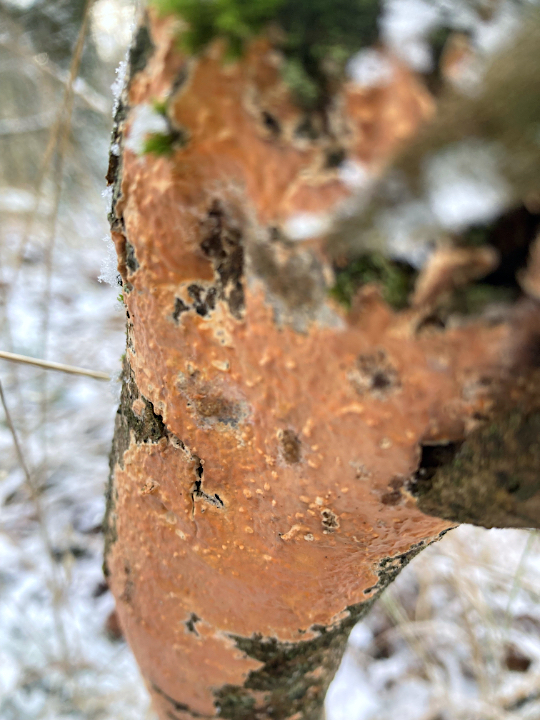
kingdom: Fungi
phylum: Basidiomycota
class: Agaricomycetes
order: Russulales
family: Peniophoraceae
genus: Peniophora
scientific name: Peniophora incarnata
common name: laksefarvet voksskind
